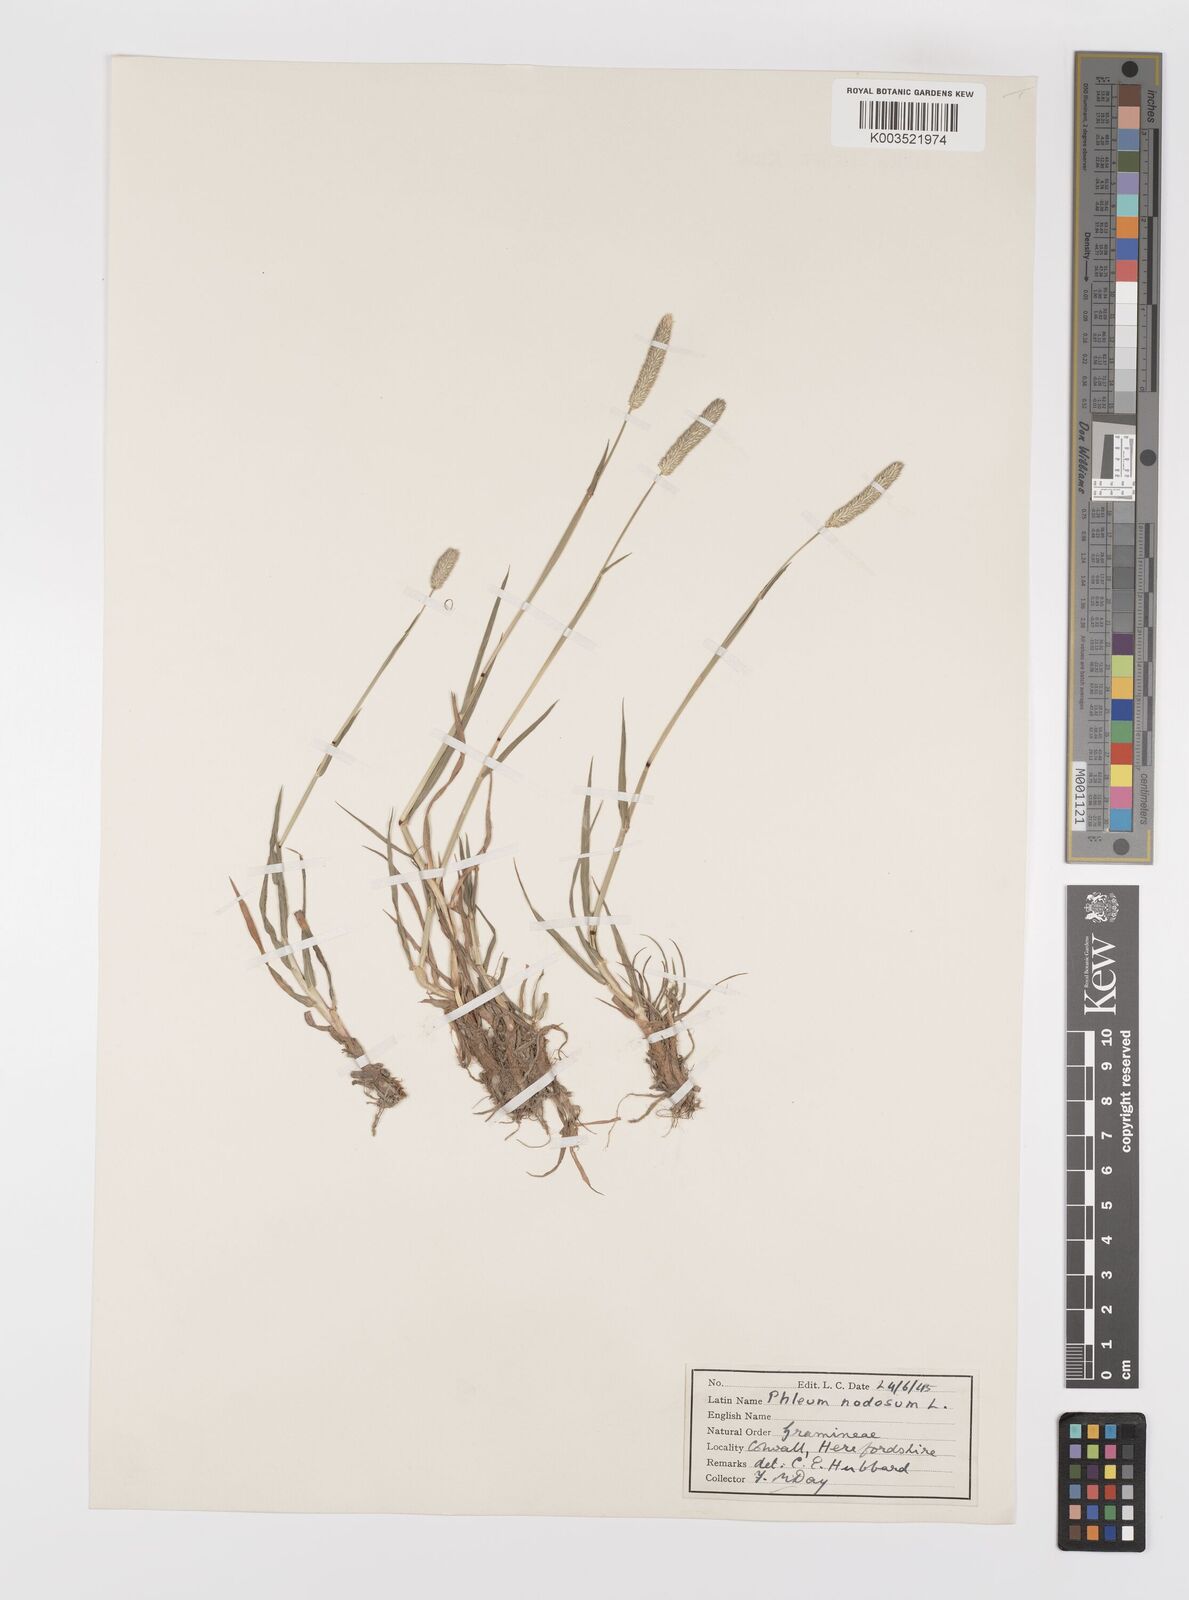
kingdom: Plantae
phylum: Tracheophyta
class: Liliopsida
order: Poales
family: Poaceae
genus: Phleum
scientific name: Phleum bertolonii
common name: Smaller cat's-tail
